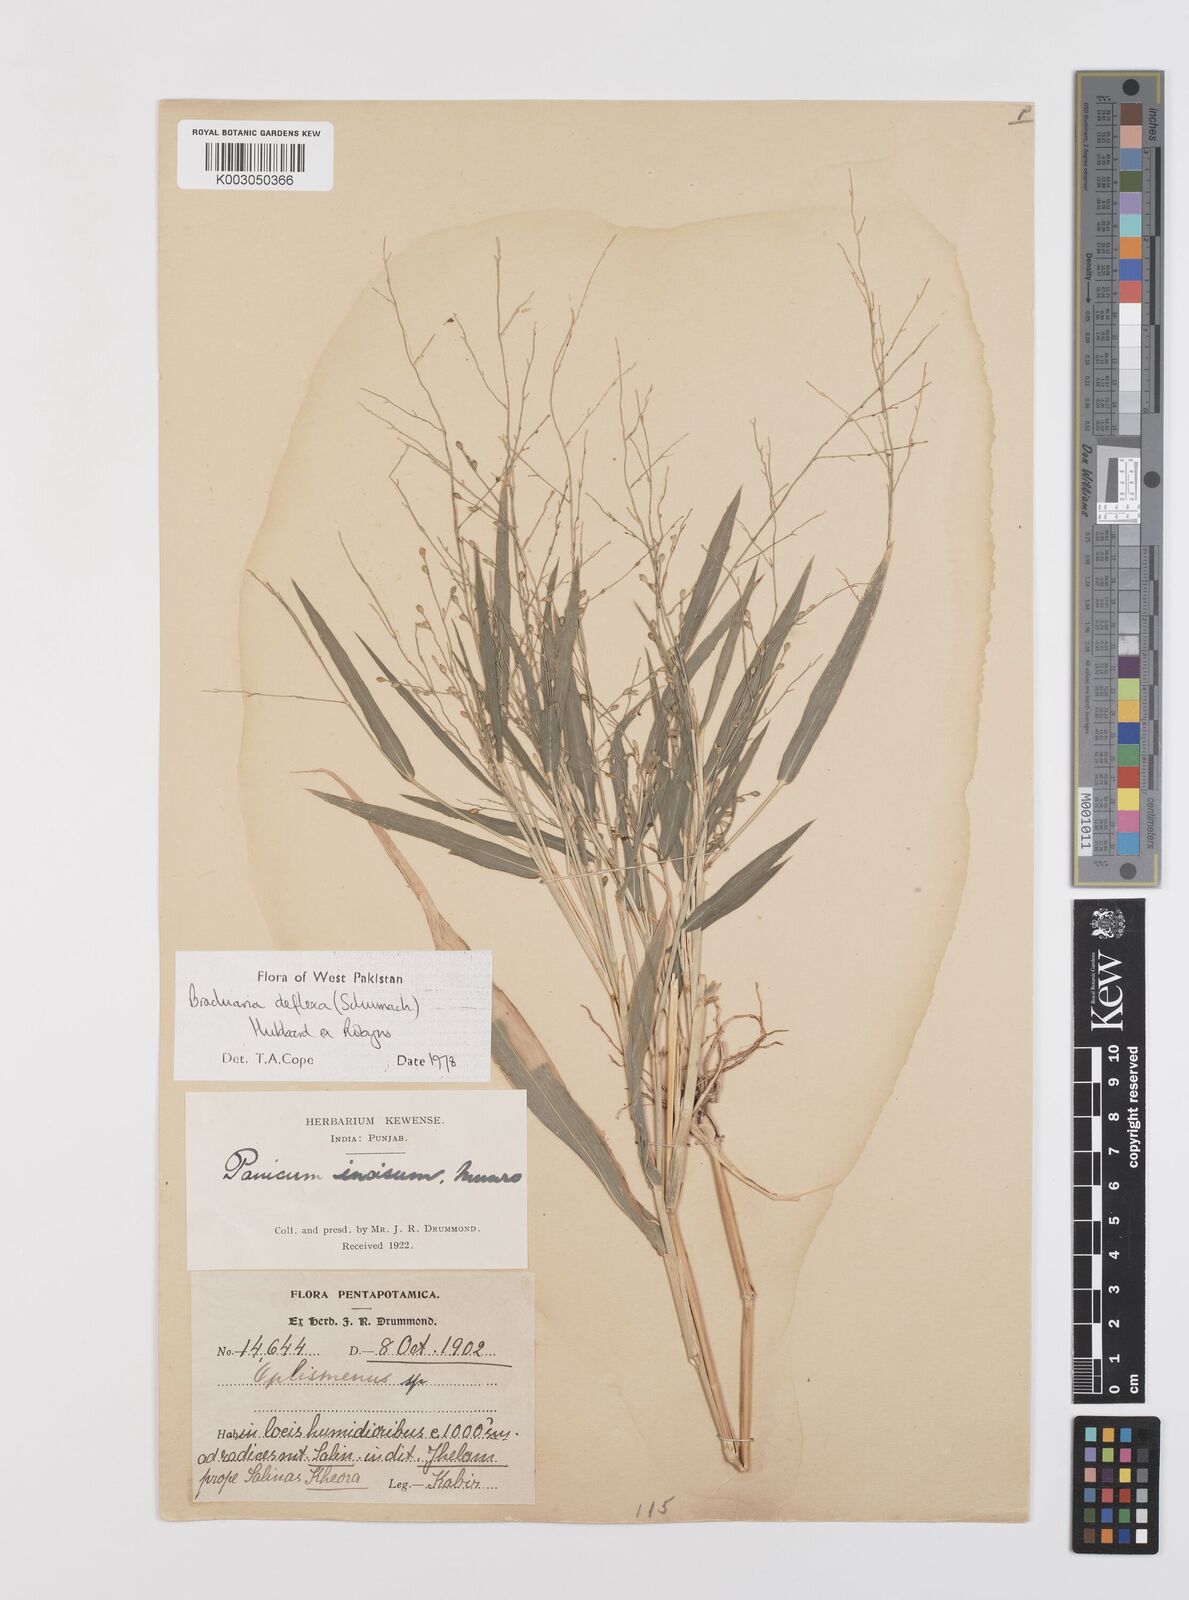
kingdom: Plantae
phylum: Tracheophyta
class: Liliopsida
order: Poales
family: Poaceae
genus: Urochloa
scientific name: Urochloa deflexa
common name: Guinea millet
